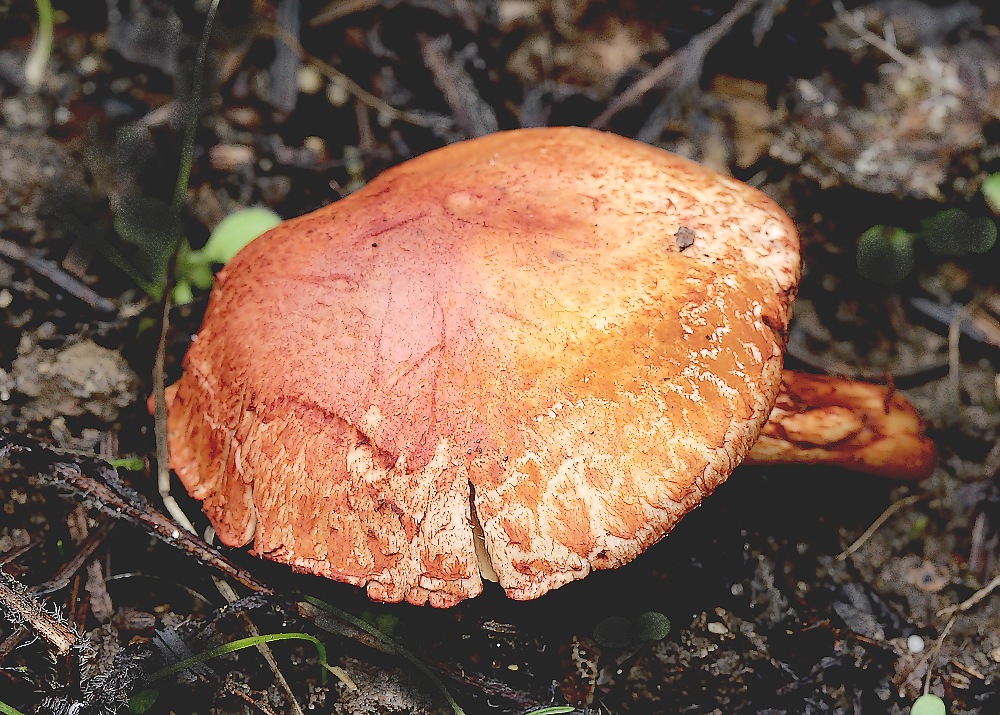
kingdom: Fungi
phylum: Basidiomycota
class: Agaricomycetes
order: Agaricales
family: Cortinariaceae
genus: Cortinarius
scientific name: Cortinarius bolaris
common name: cinnoberskællet slørhat
